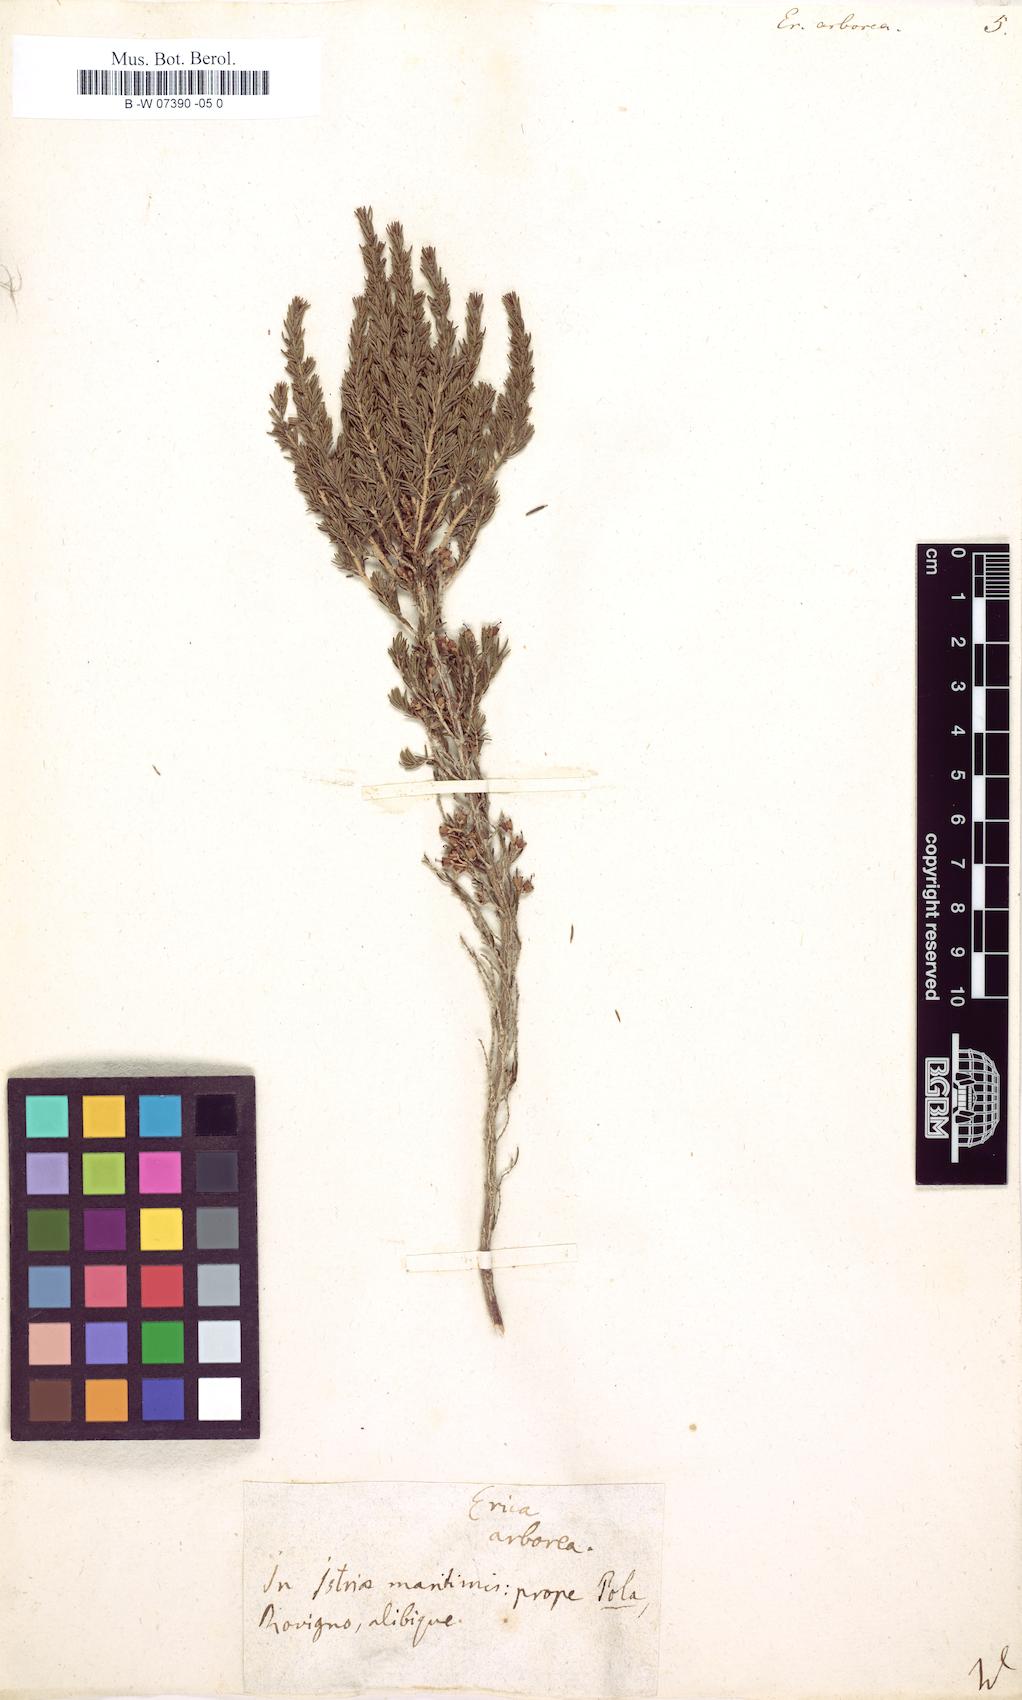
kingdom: Plantae
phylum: Tracheophyta
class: Magnoliopsida
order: Ericales
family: Ericaceae
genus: Erica
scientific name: Erica arborea
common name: Tree heath
